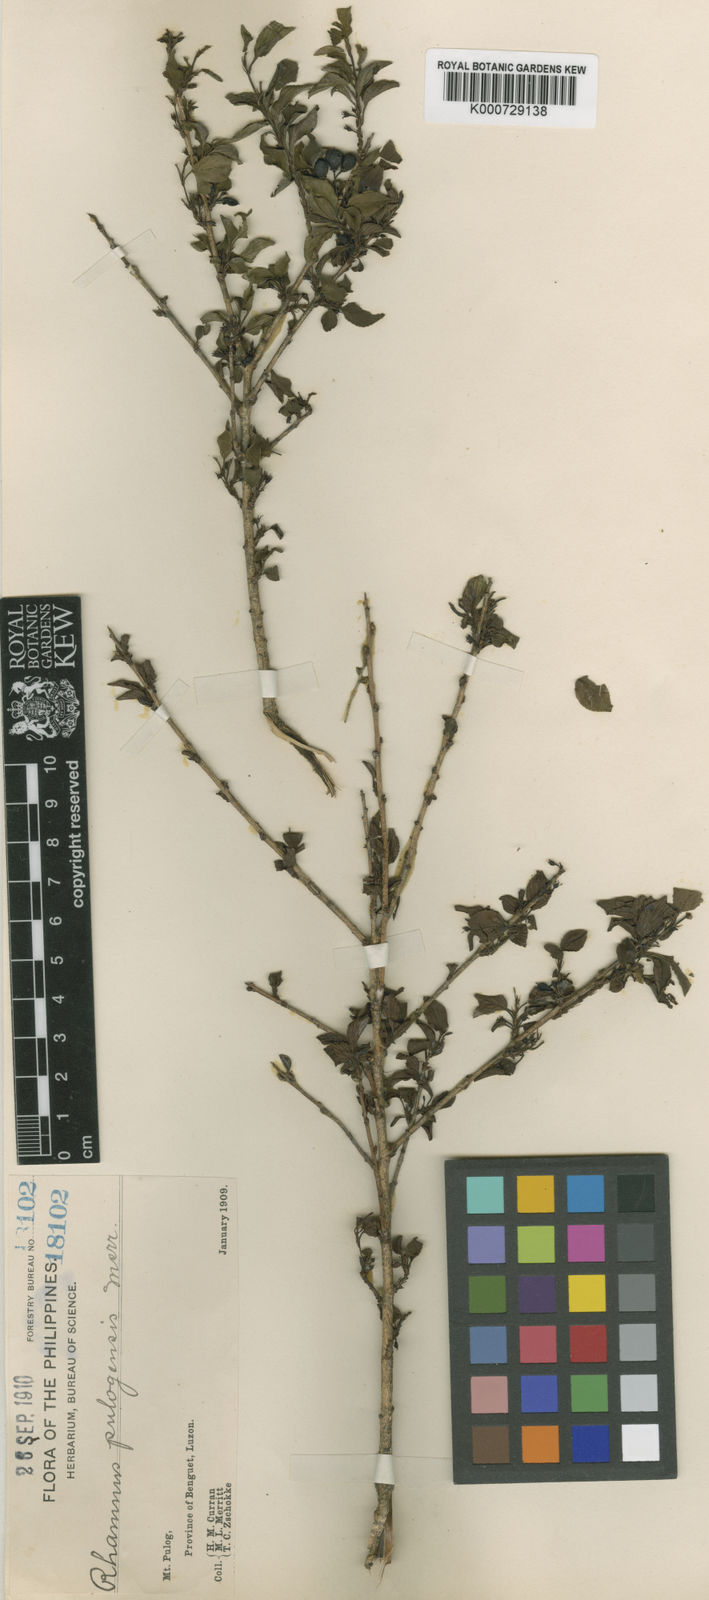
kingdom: Plantae
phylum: Tracheophyta
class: Magnoliopsida
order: Rosales
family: Rhamnaceae
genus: Rhamnus
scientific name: Rhamnus pulogensis
